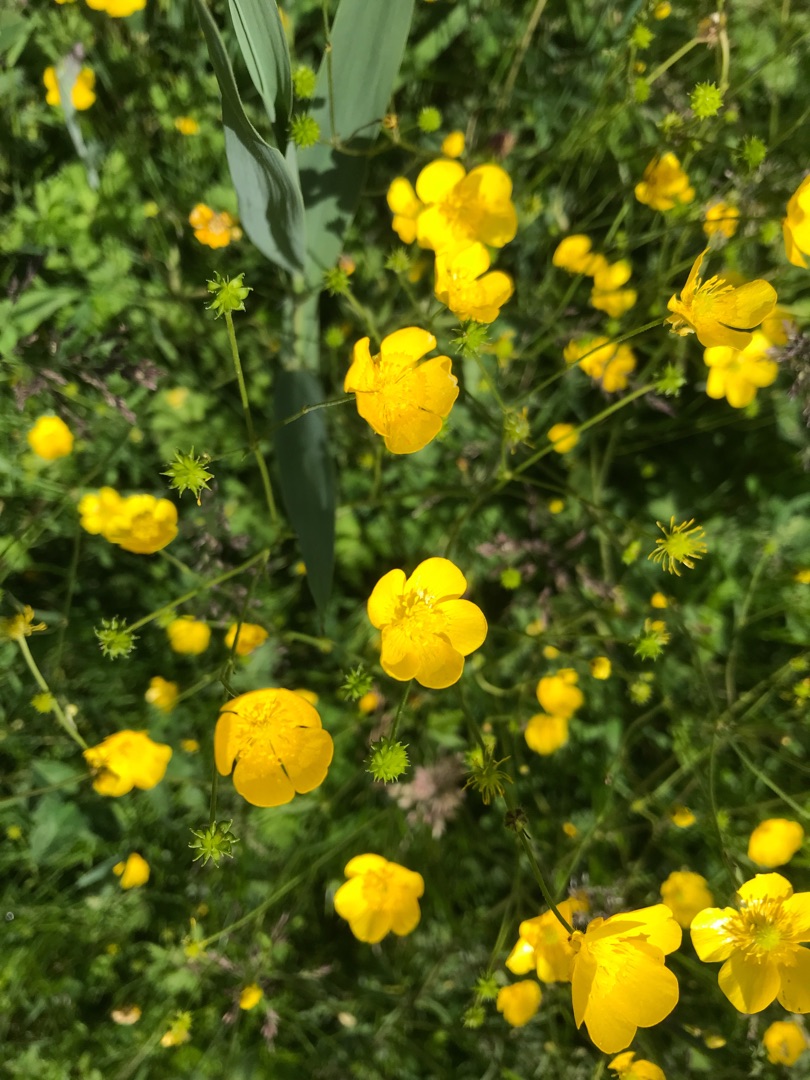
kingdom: Plantae
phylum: Tracheophyta
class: Magnoliopsida
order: Ranunculales
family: Ranunculaceae
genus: Ranunculus
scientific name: Ranunculus acris
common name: Bidende ranunkel
